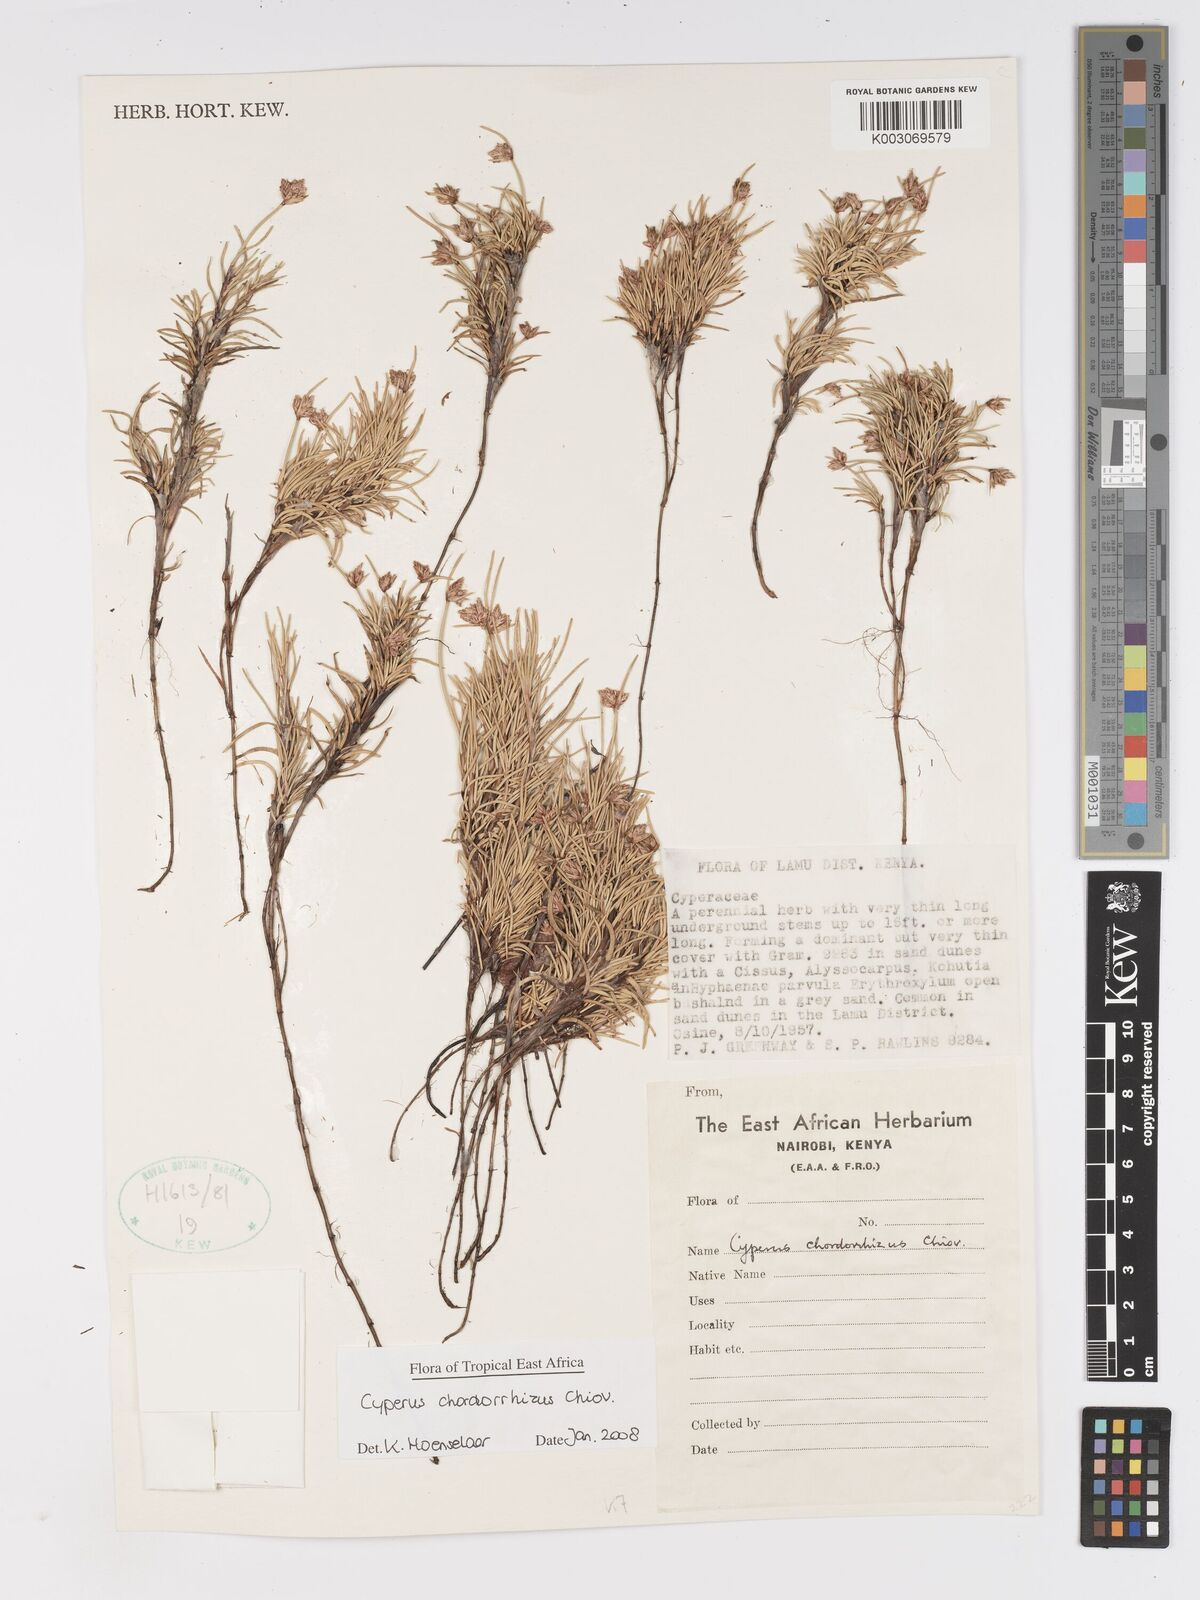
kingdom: Plantae
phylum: Tracheophyta
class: Liliopsida
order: Poales
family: Cyperaceae
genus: Cyperus
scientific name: Cyperus chordorrhizus
